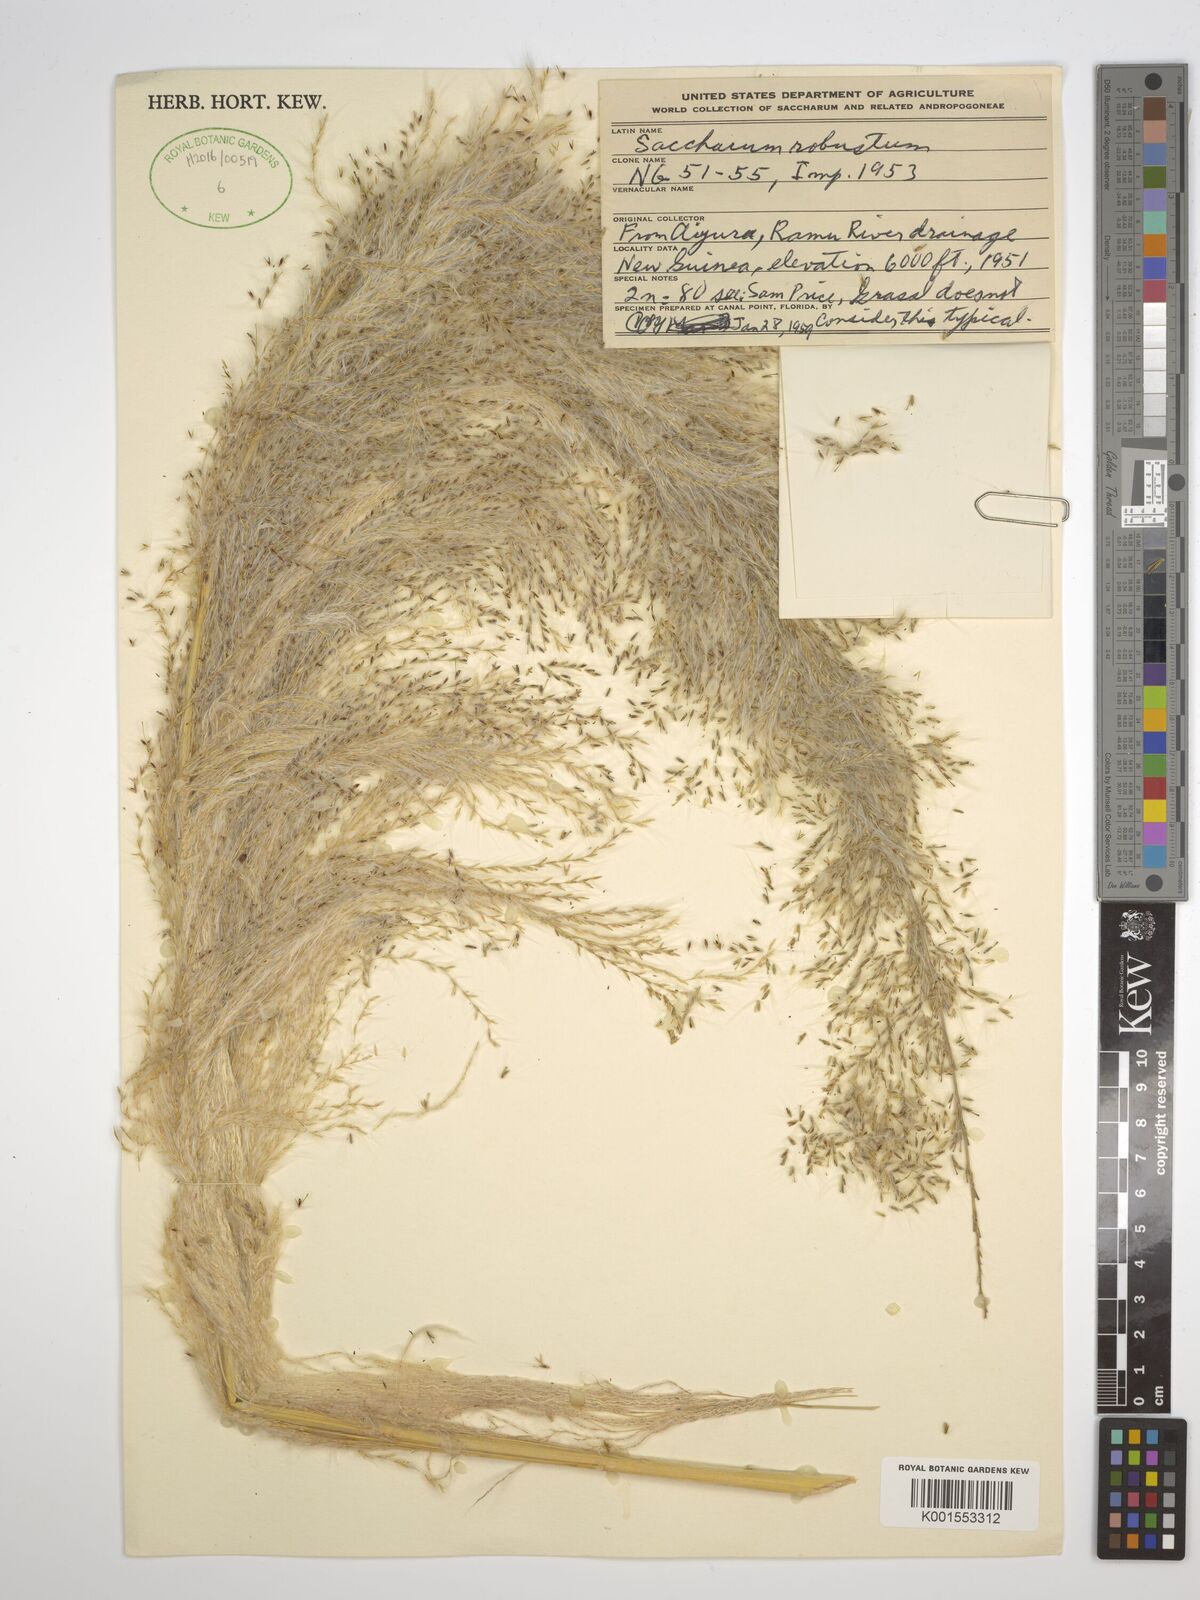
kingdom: Plantae
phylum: Tracheophyta
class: Liliopsida
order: Poales
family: Poaceae
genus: Saccharum
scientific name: Saccharum robustum
